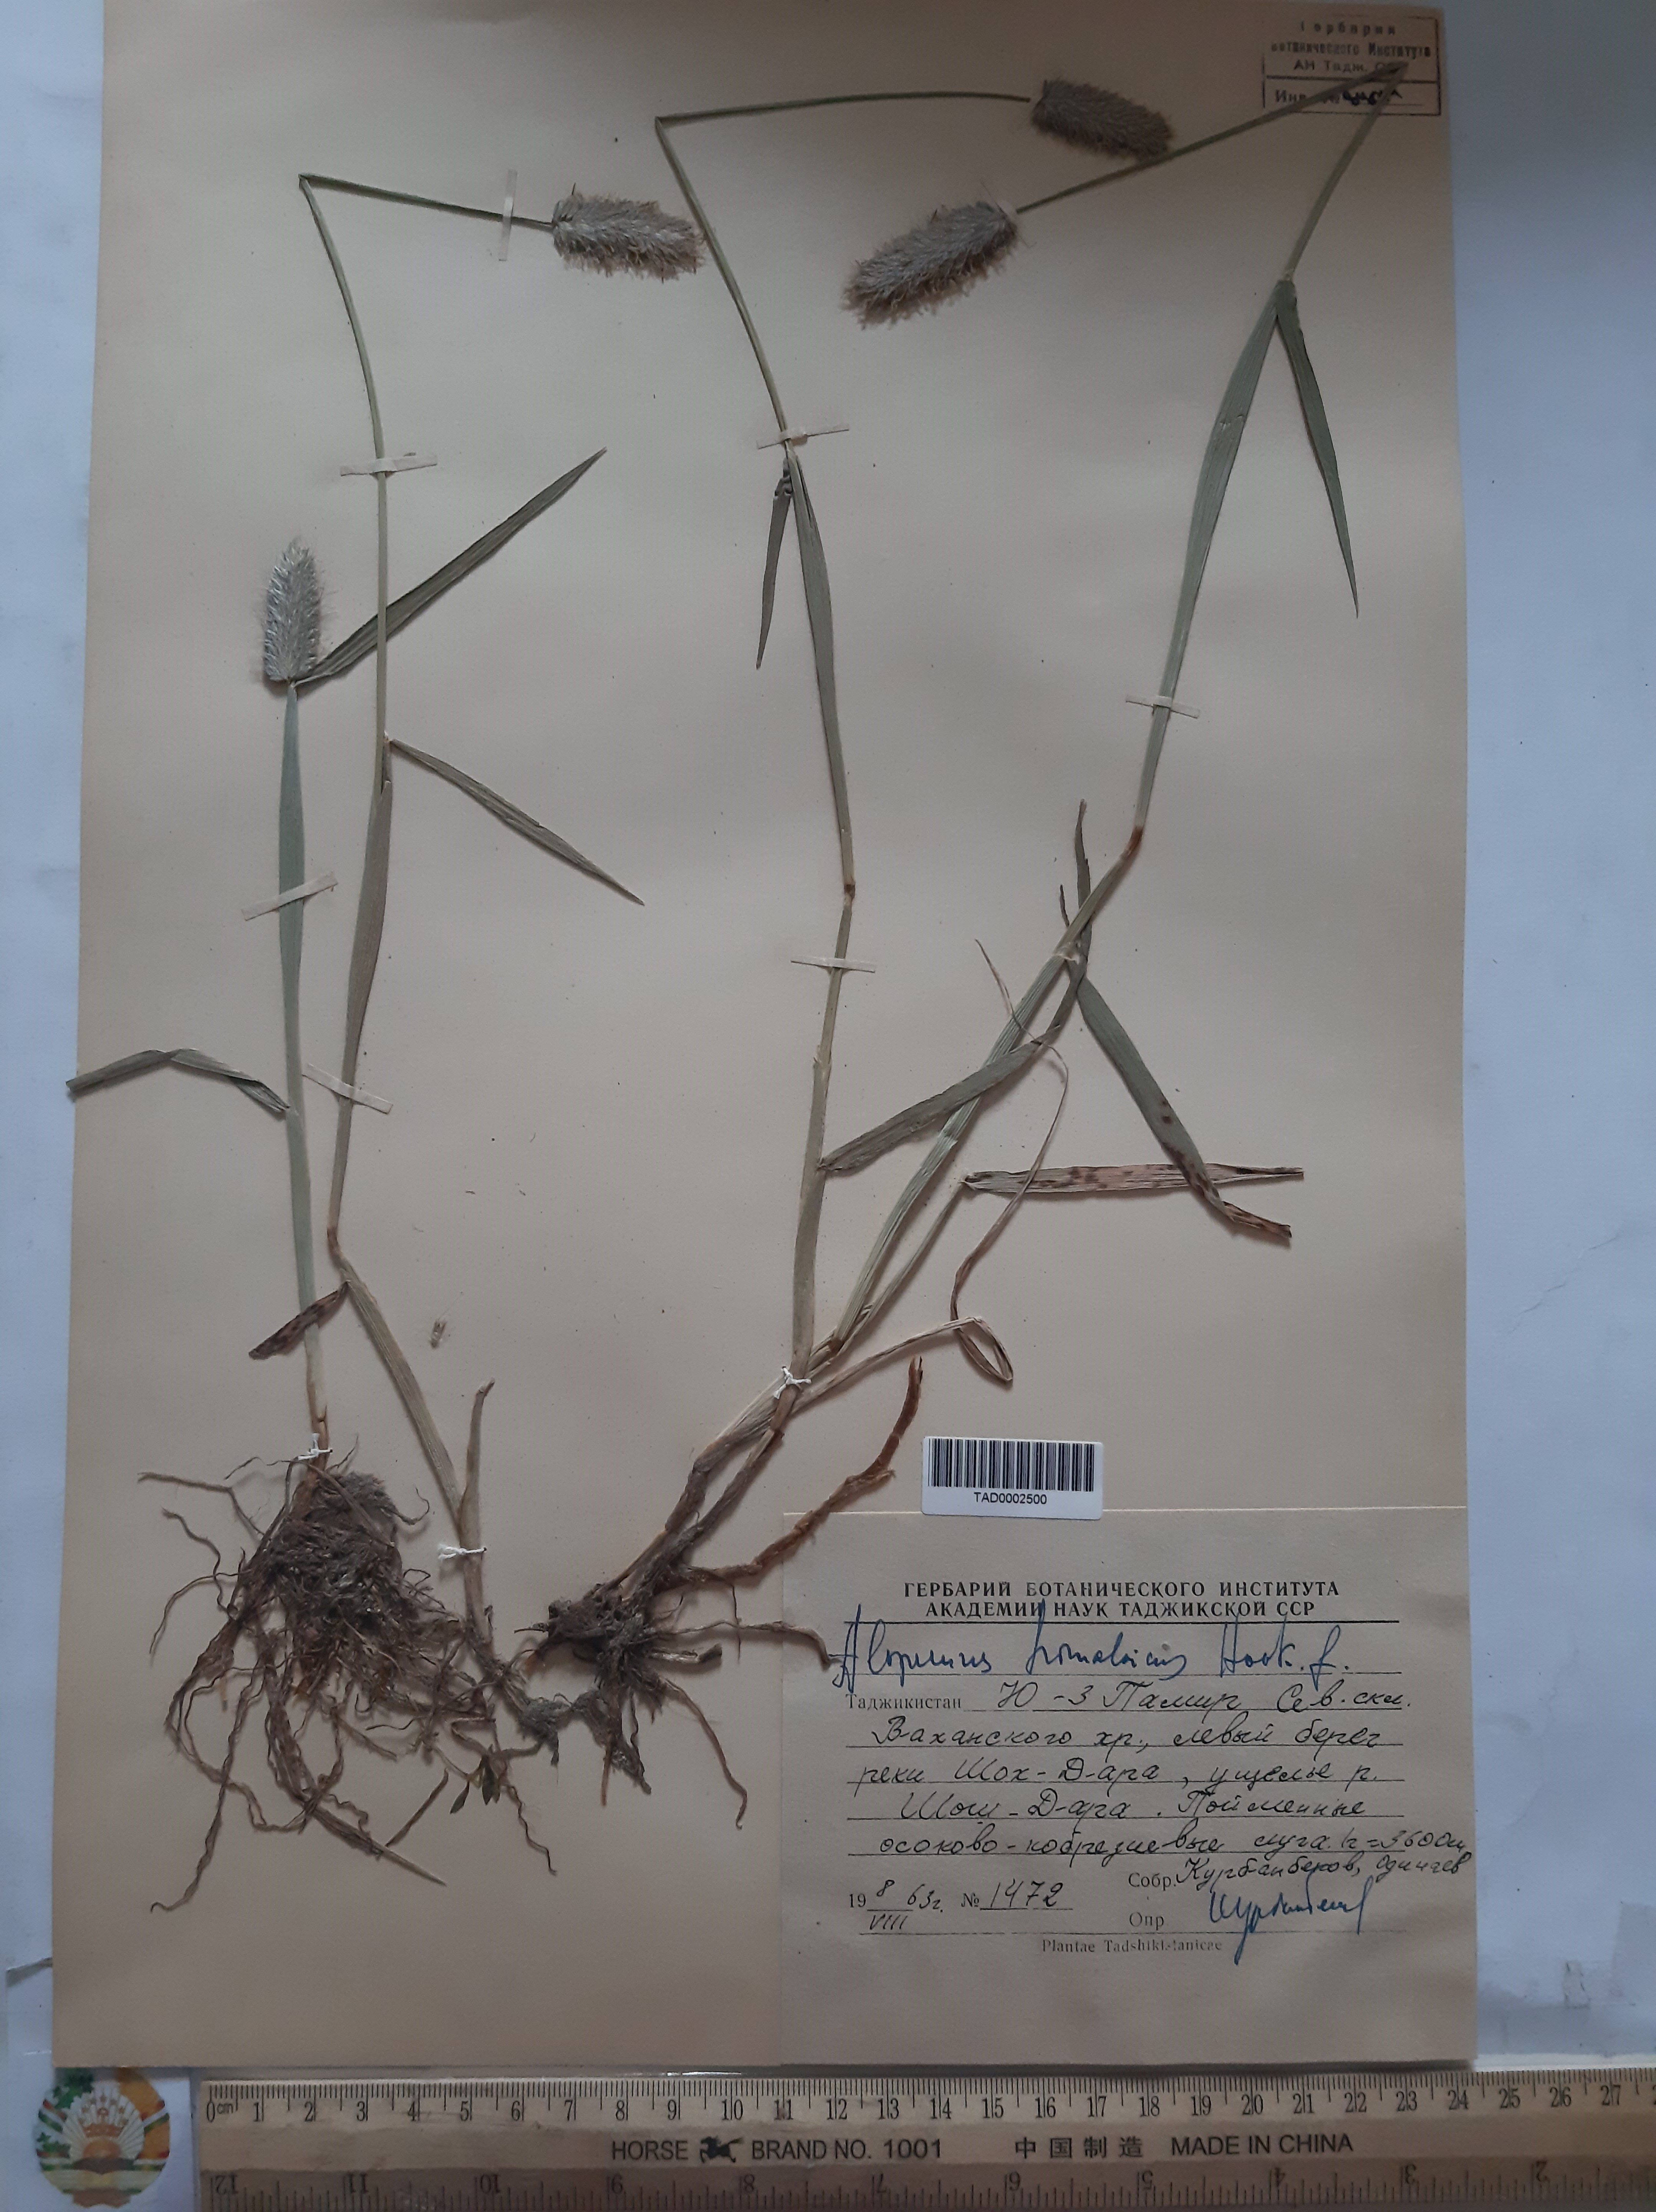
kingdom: Plantae
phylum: Tracheophyta
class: Liliopsida
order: Poales
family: Poaceae
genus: Alopecurus
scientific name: Alopecurus himalaicus
